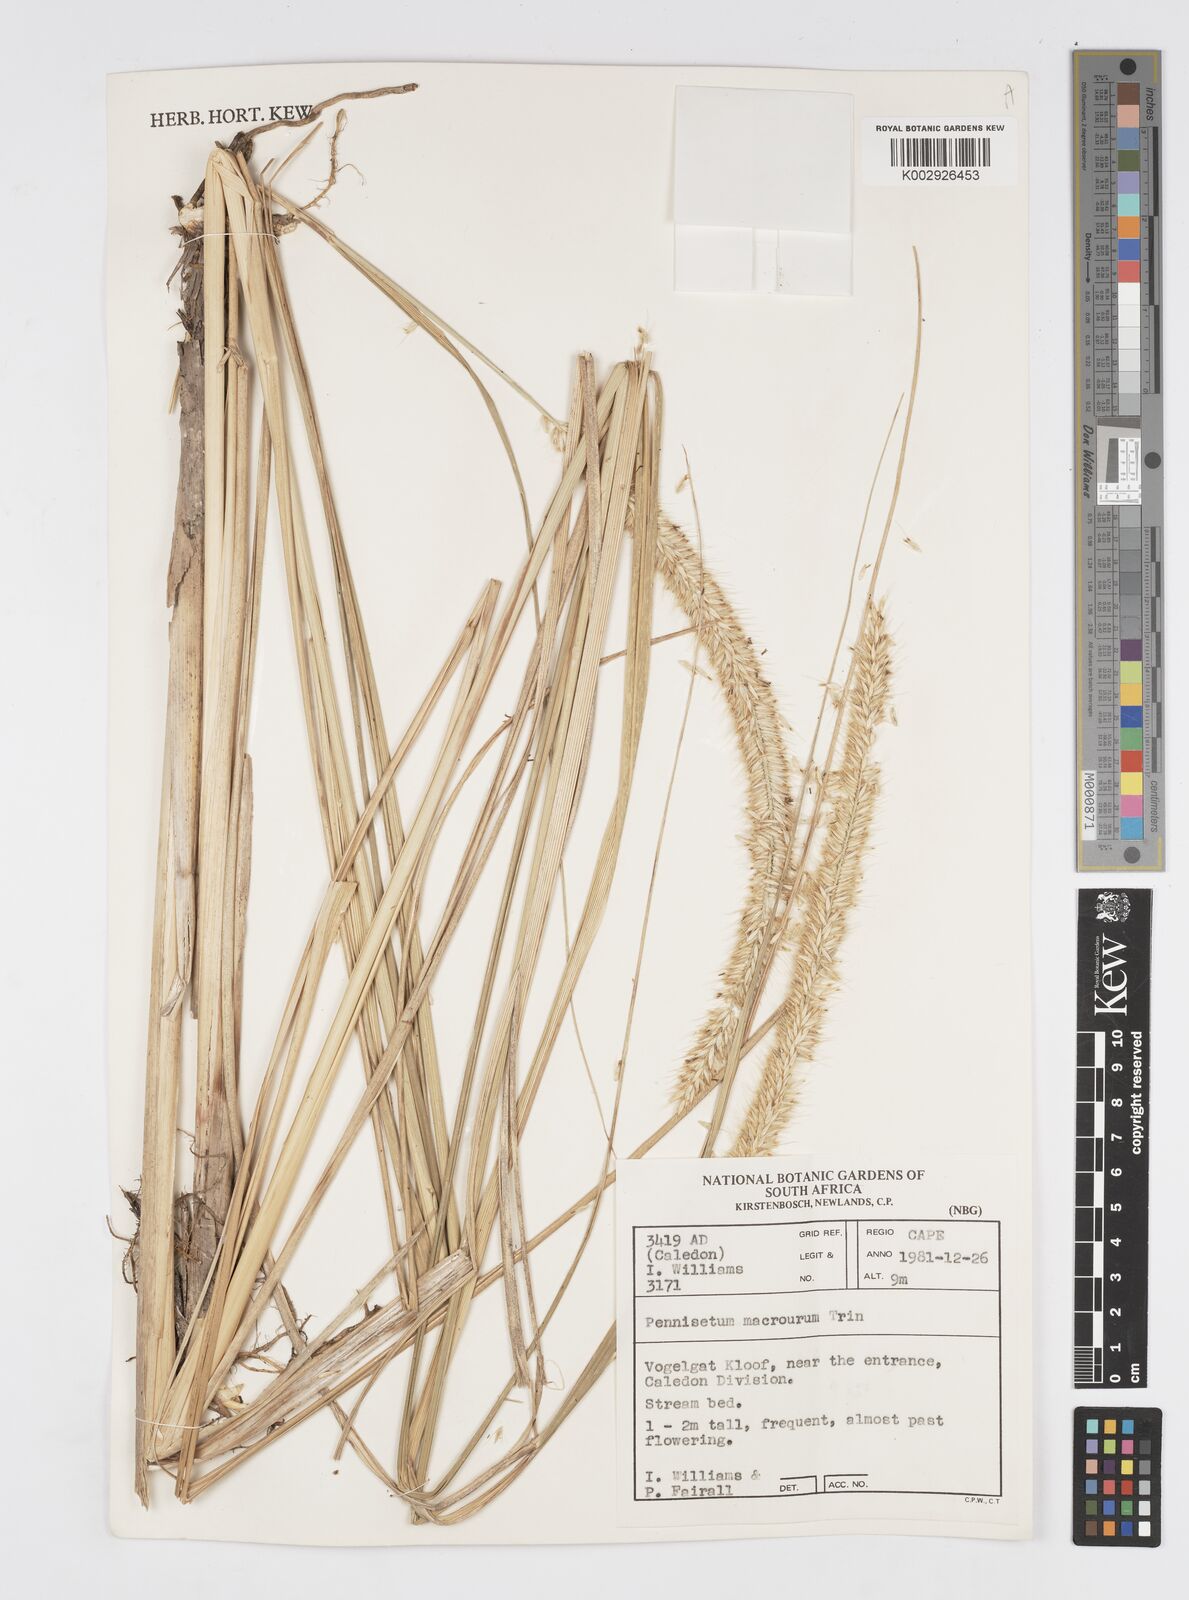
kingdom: Plantae
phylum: Tracheophyta
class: Liliopsida
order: Poales
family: Poaceae
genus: Cenchrus
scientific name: Cenchrus purpureus
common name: Elephant grass
